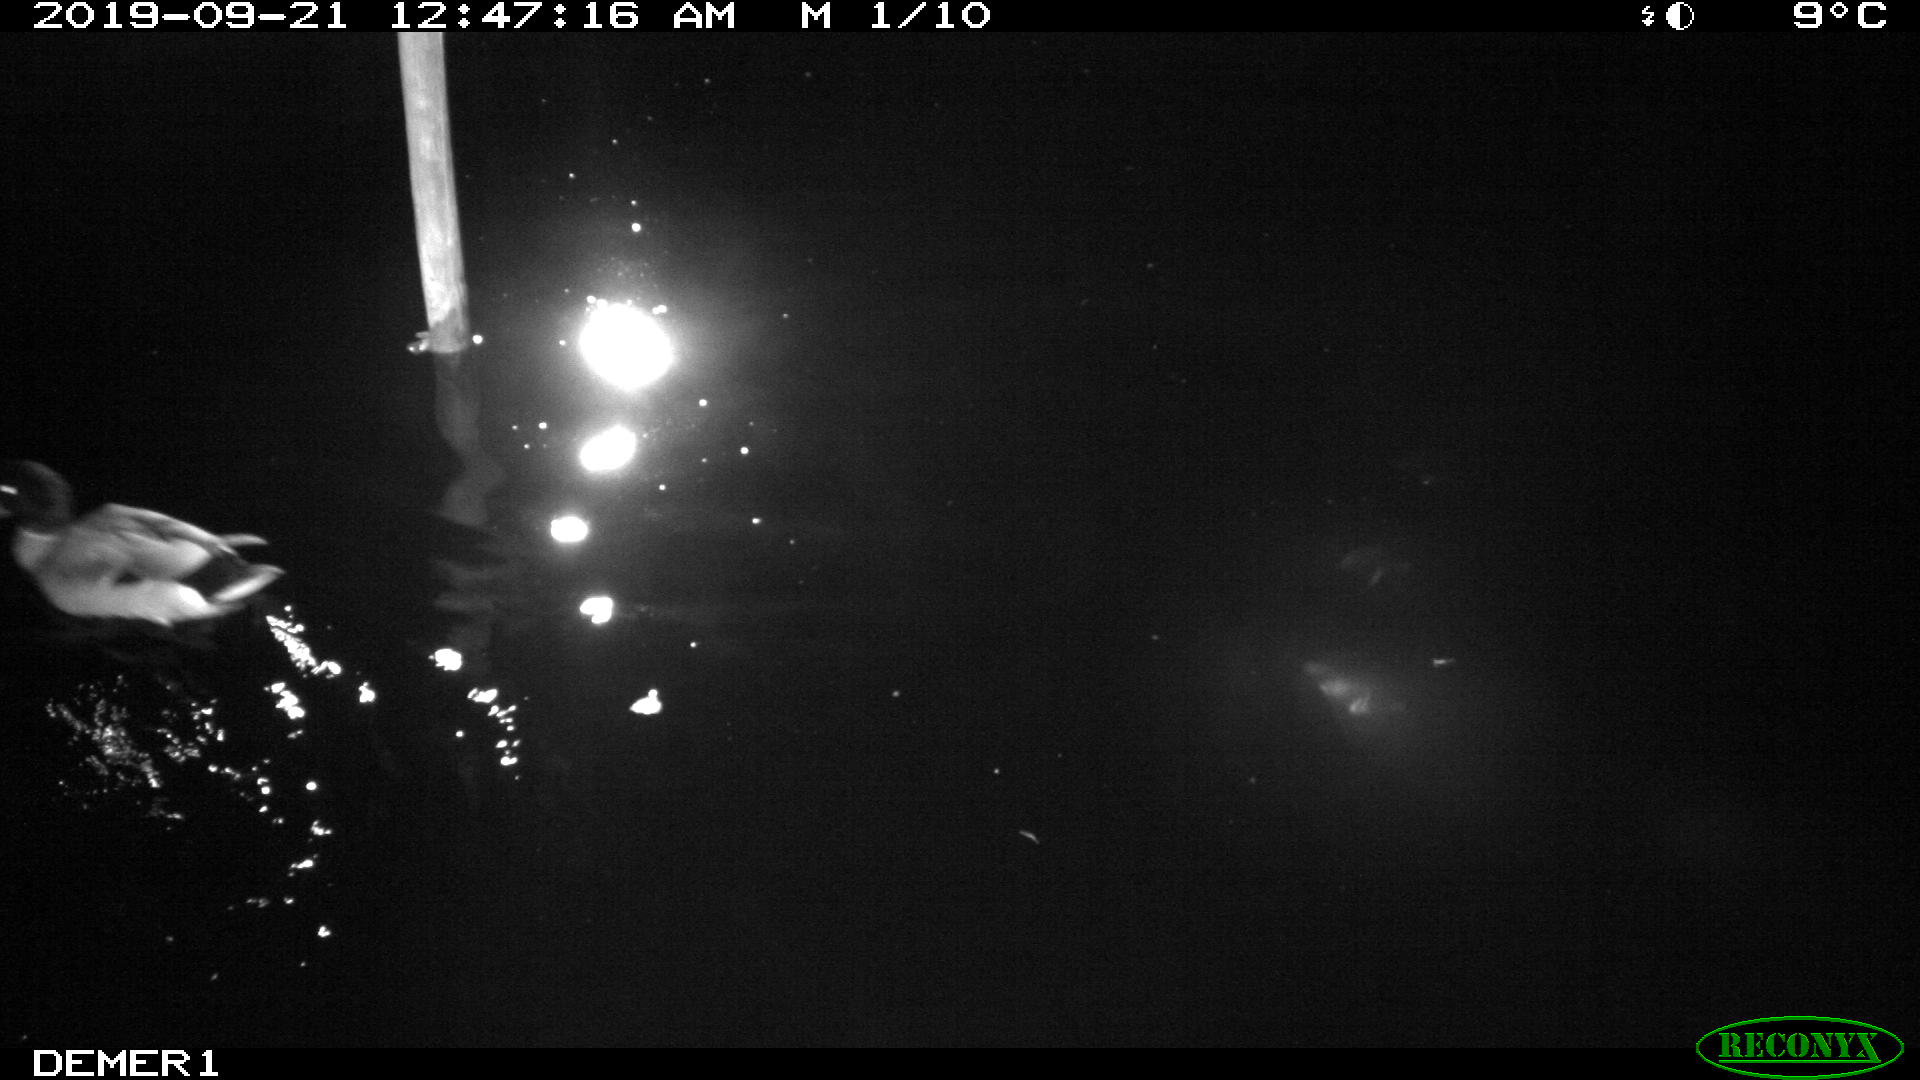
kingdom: Animalia
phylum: Chordata
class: Aves
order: Anseriformes
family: Anatidae
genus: Anas
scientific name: Anas platyrhynchos
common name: Mallard
